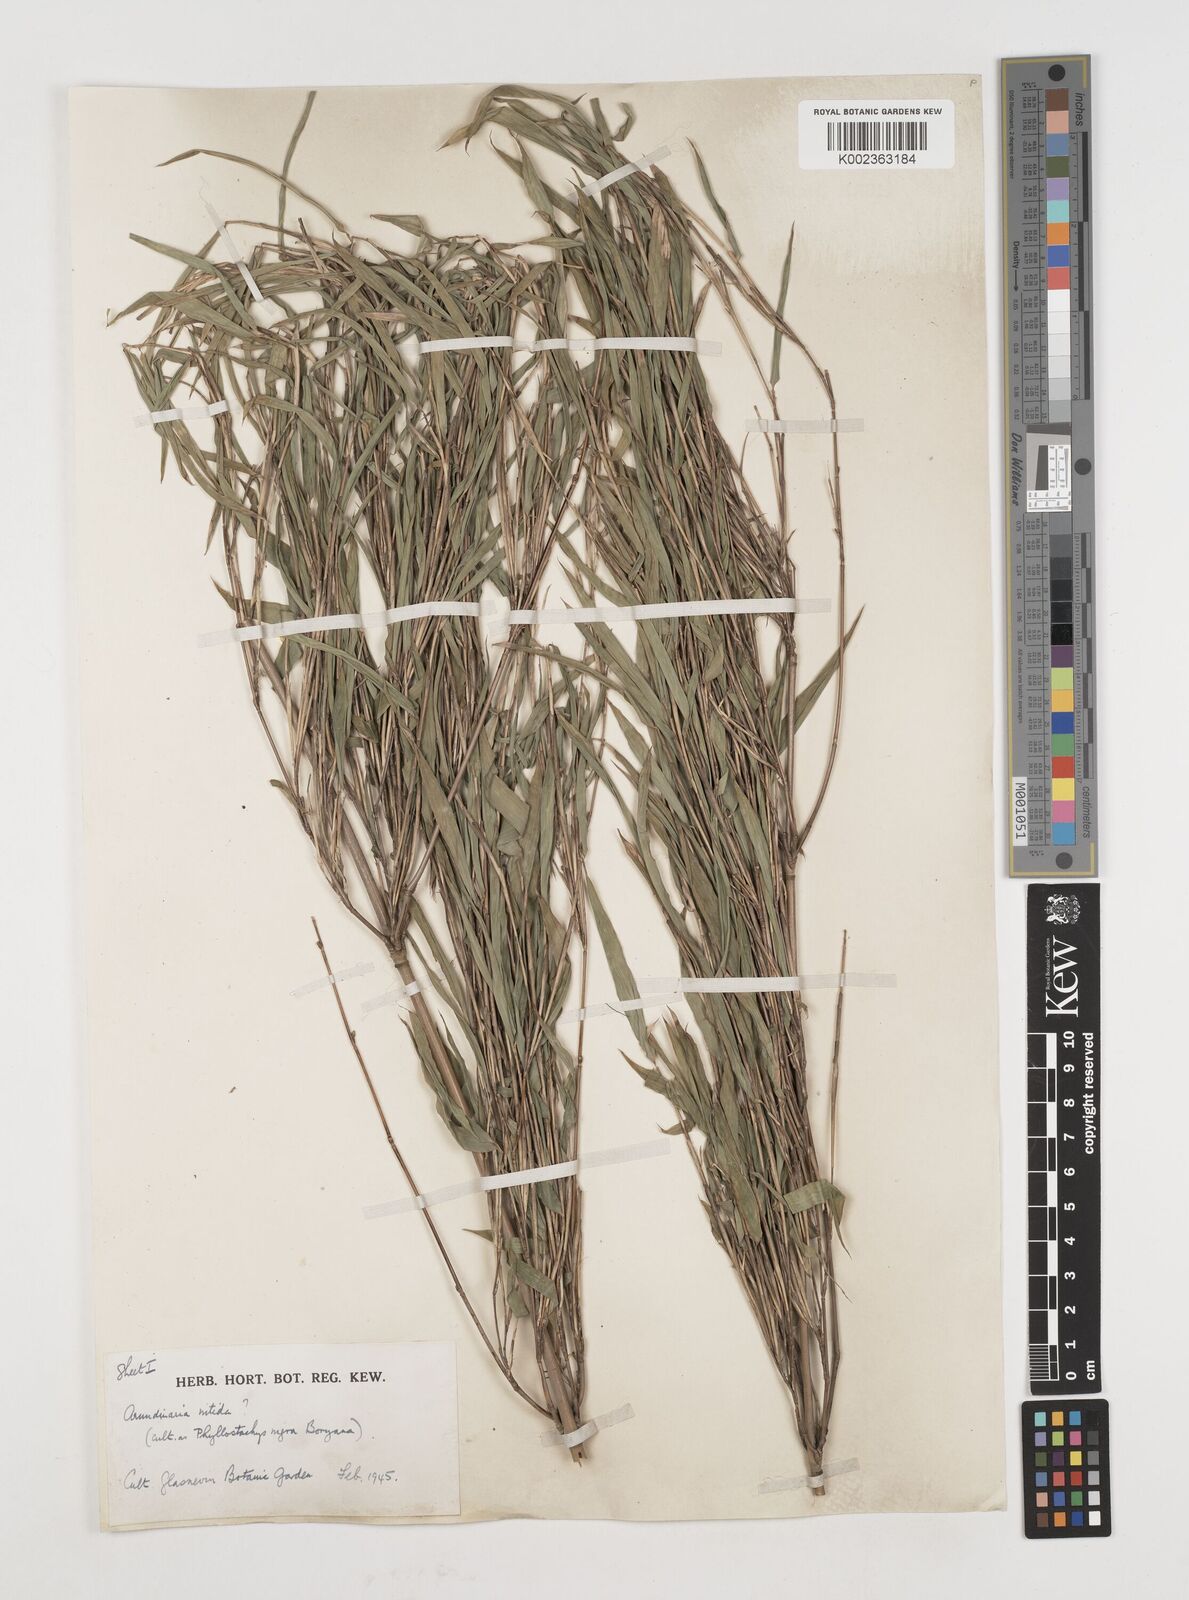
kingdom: Plantae
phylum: Tracheophyta
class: Liliopsida
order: Poales
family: Poaceae
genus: Fargesia
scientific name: Fargesia nitida ex
